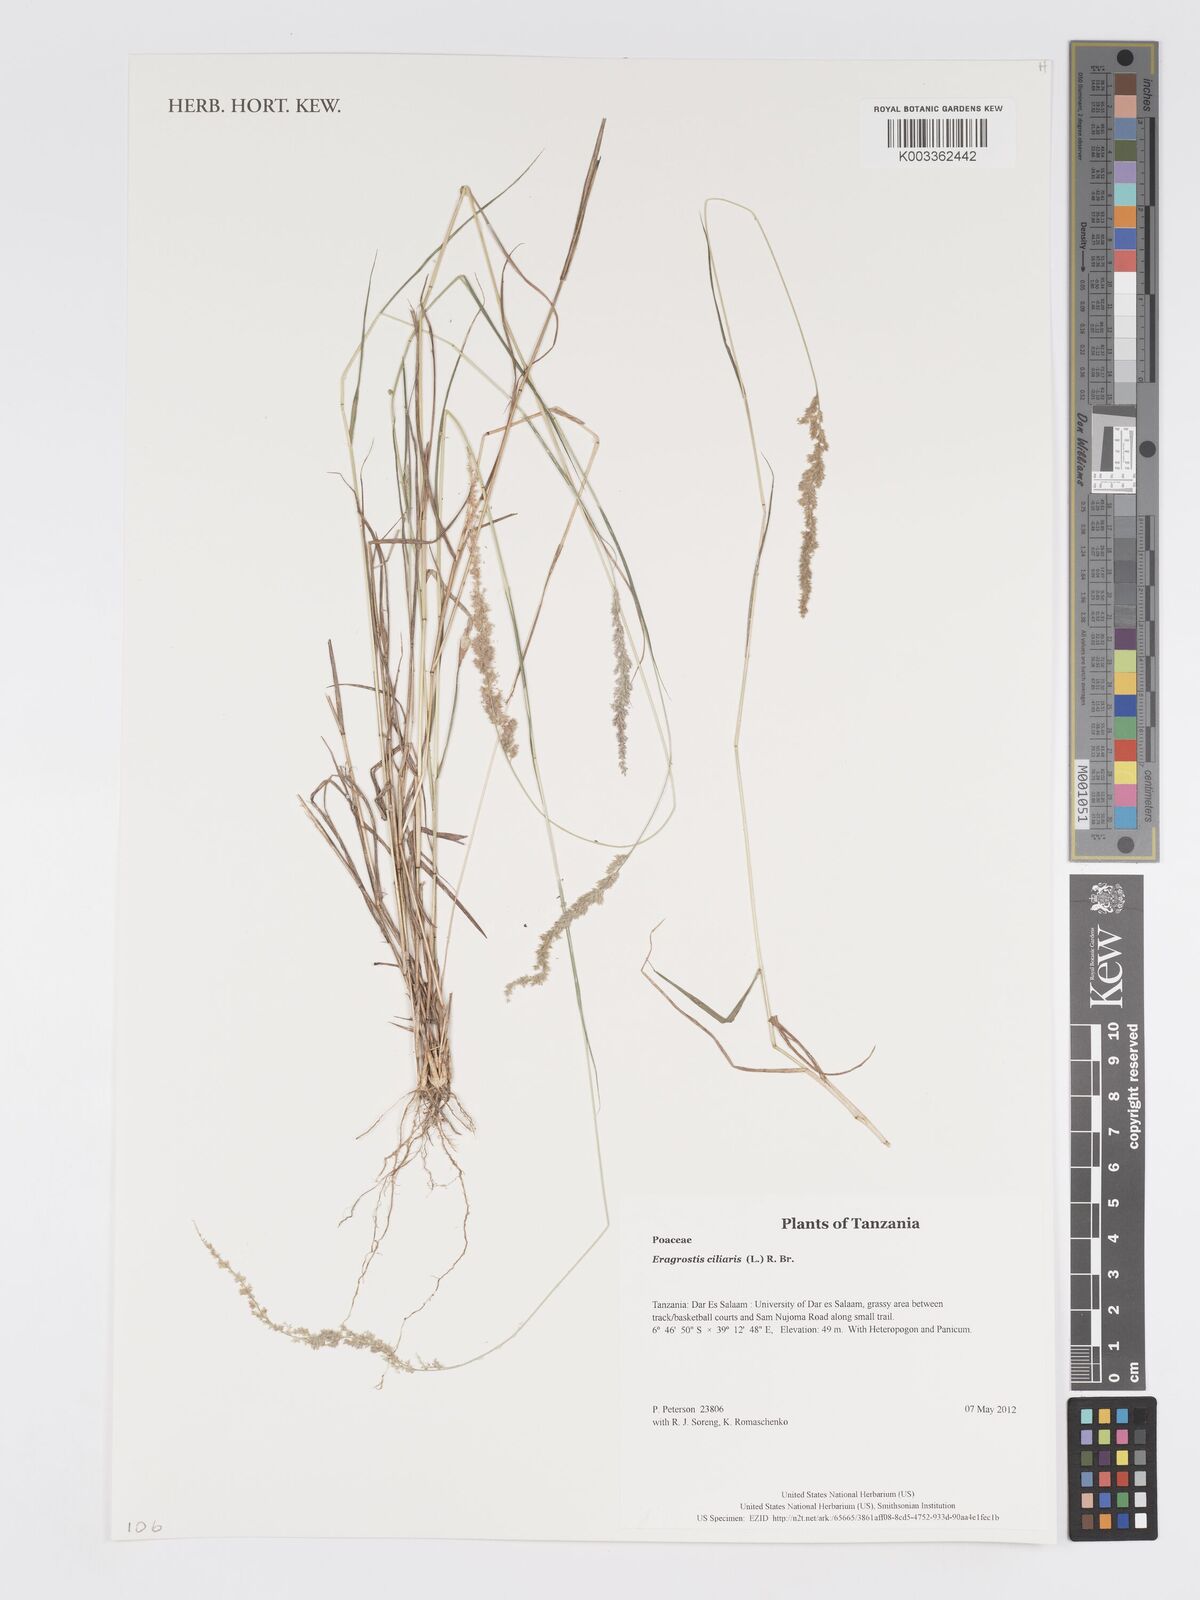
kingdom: Plantae
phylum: Tracheophyta
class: Liliopsida
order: Poales
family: Poaceae
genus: Eragrostis
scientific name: Eragrostis ciliaris
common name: Gophertail lovegrass
